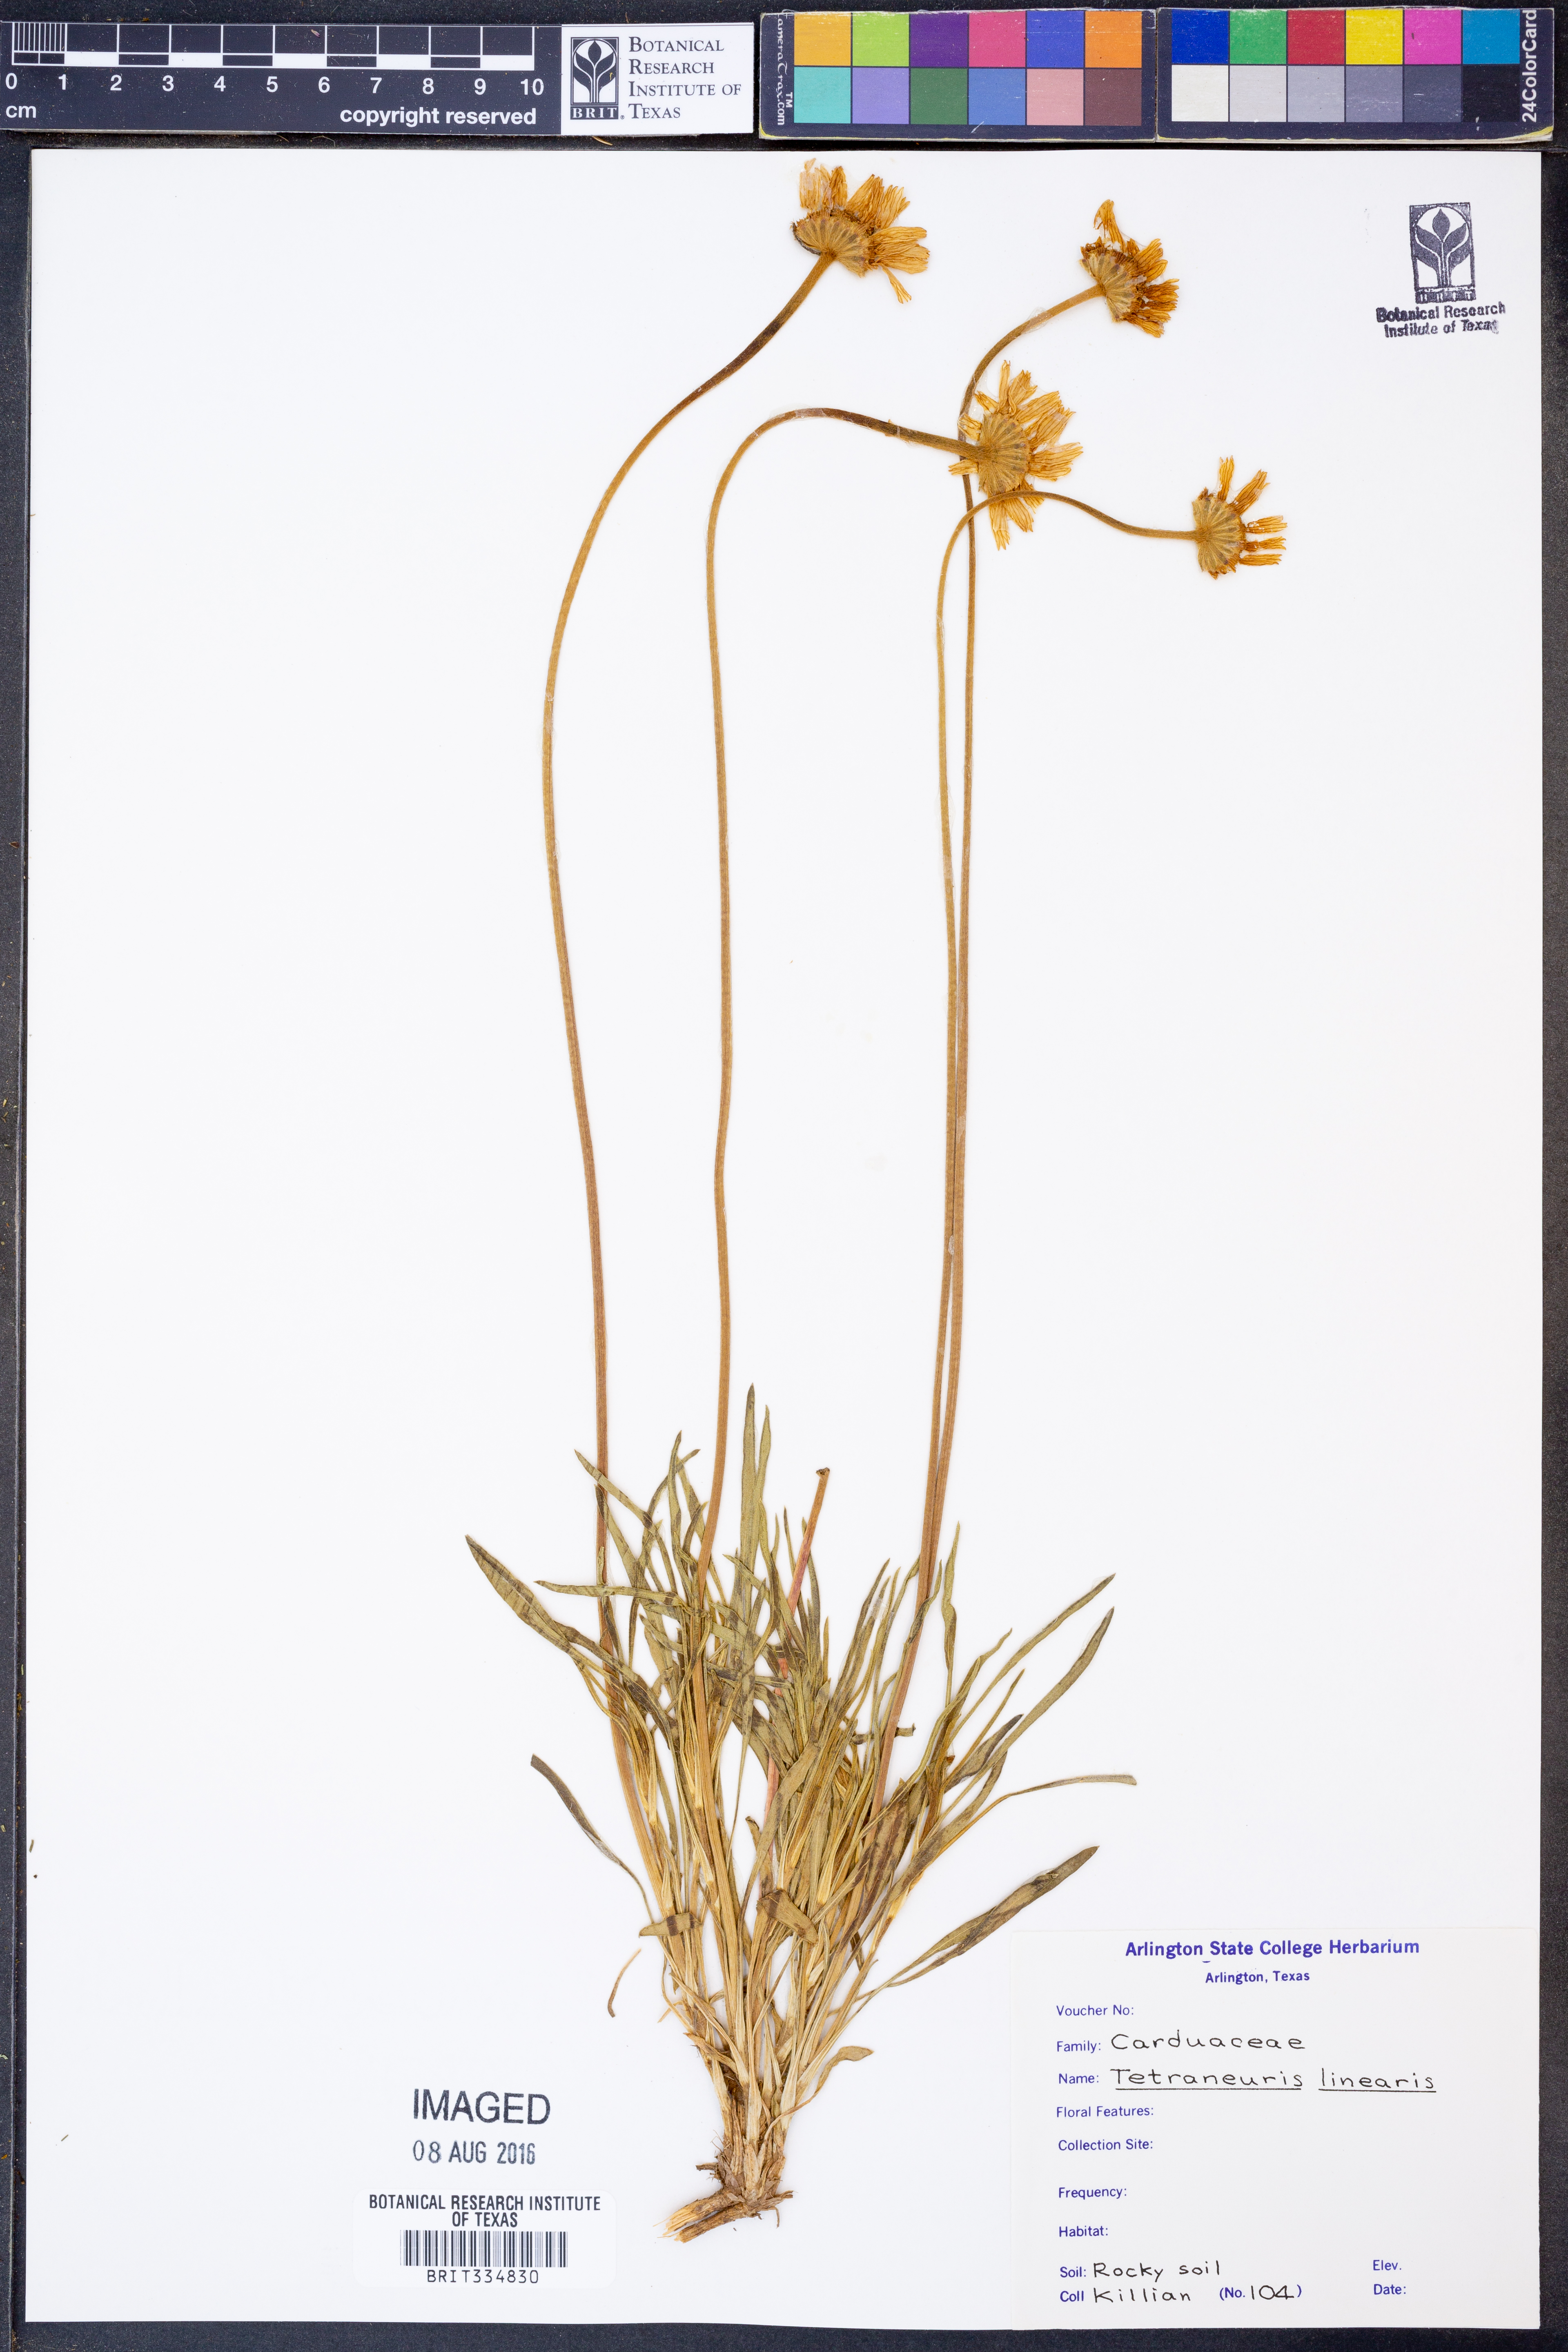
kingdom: Plantae
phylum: Tracheophyta
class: Magnoliopsida
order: Asterales
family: Asteraceae
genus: Tetraneuris
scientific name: Tetraneuris scaposa
